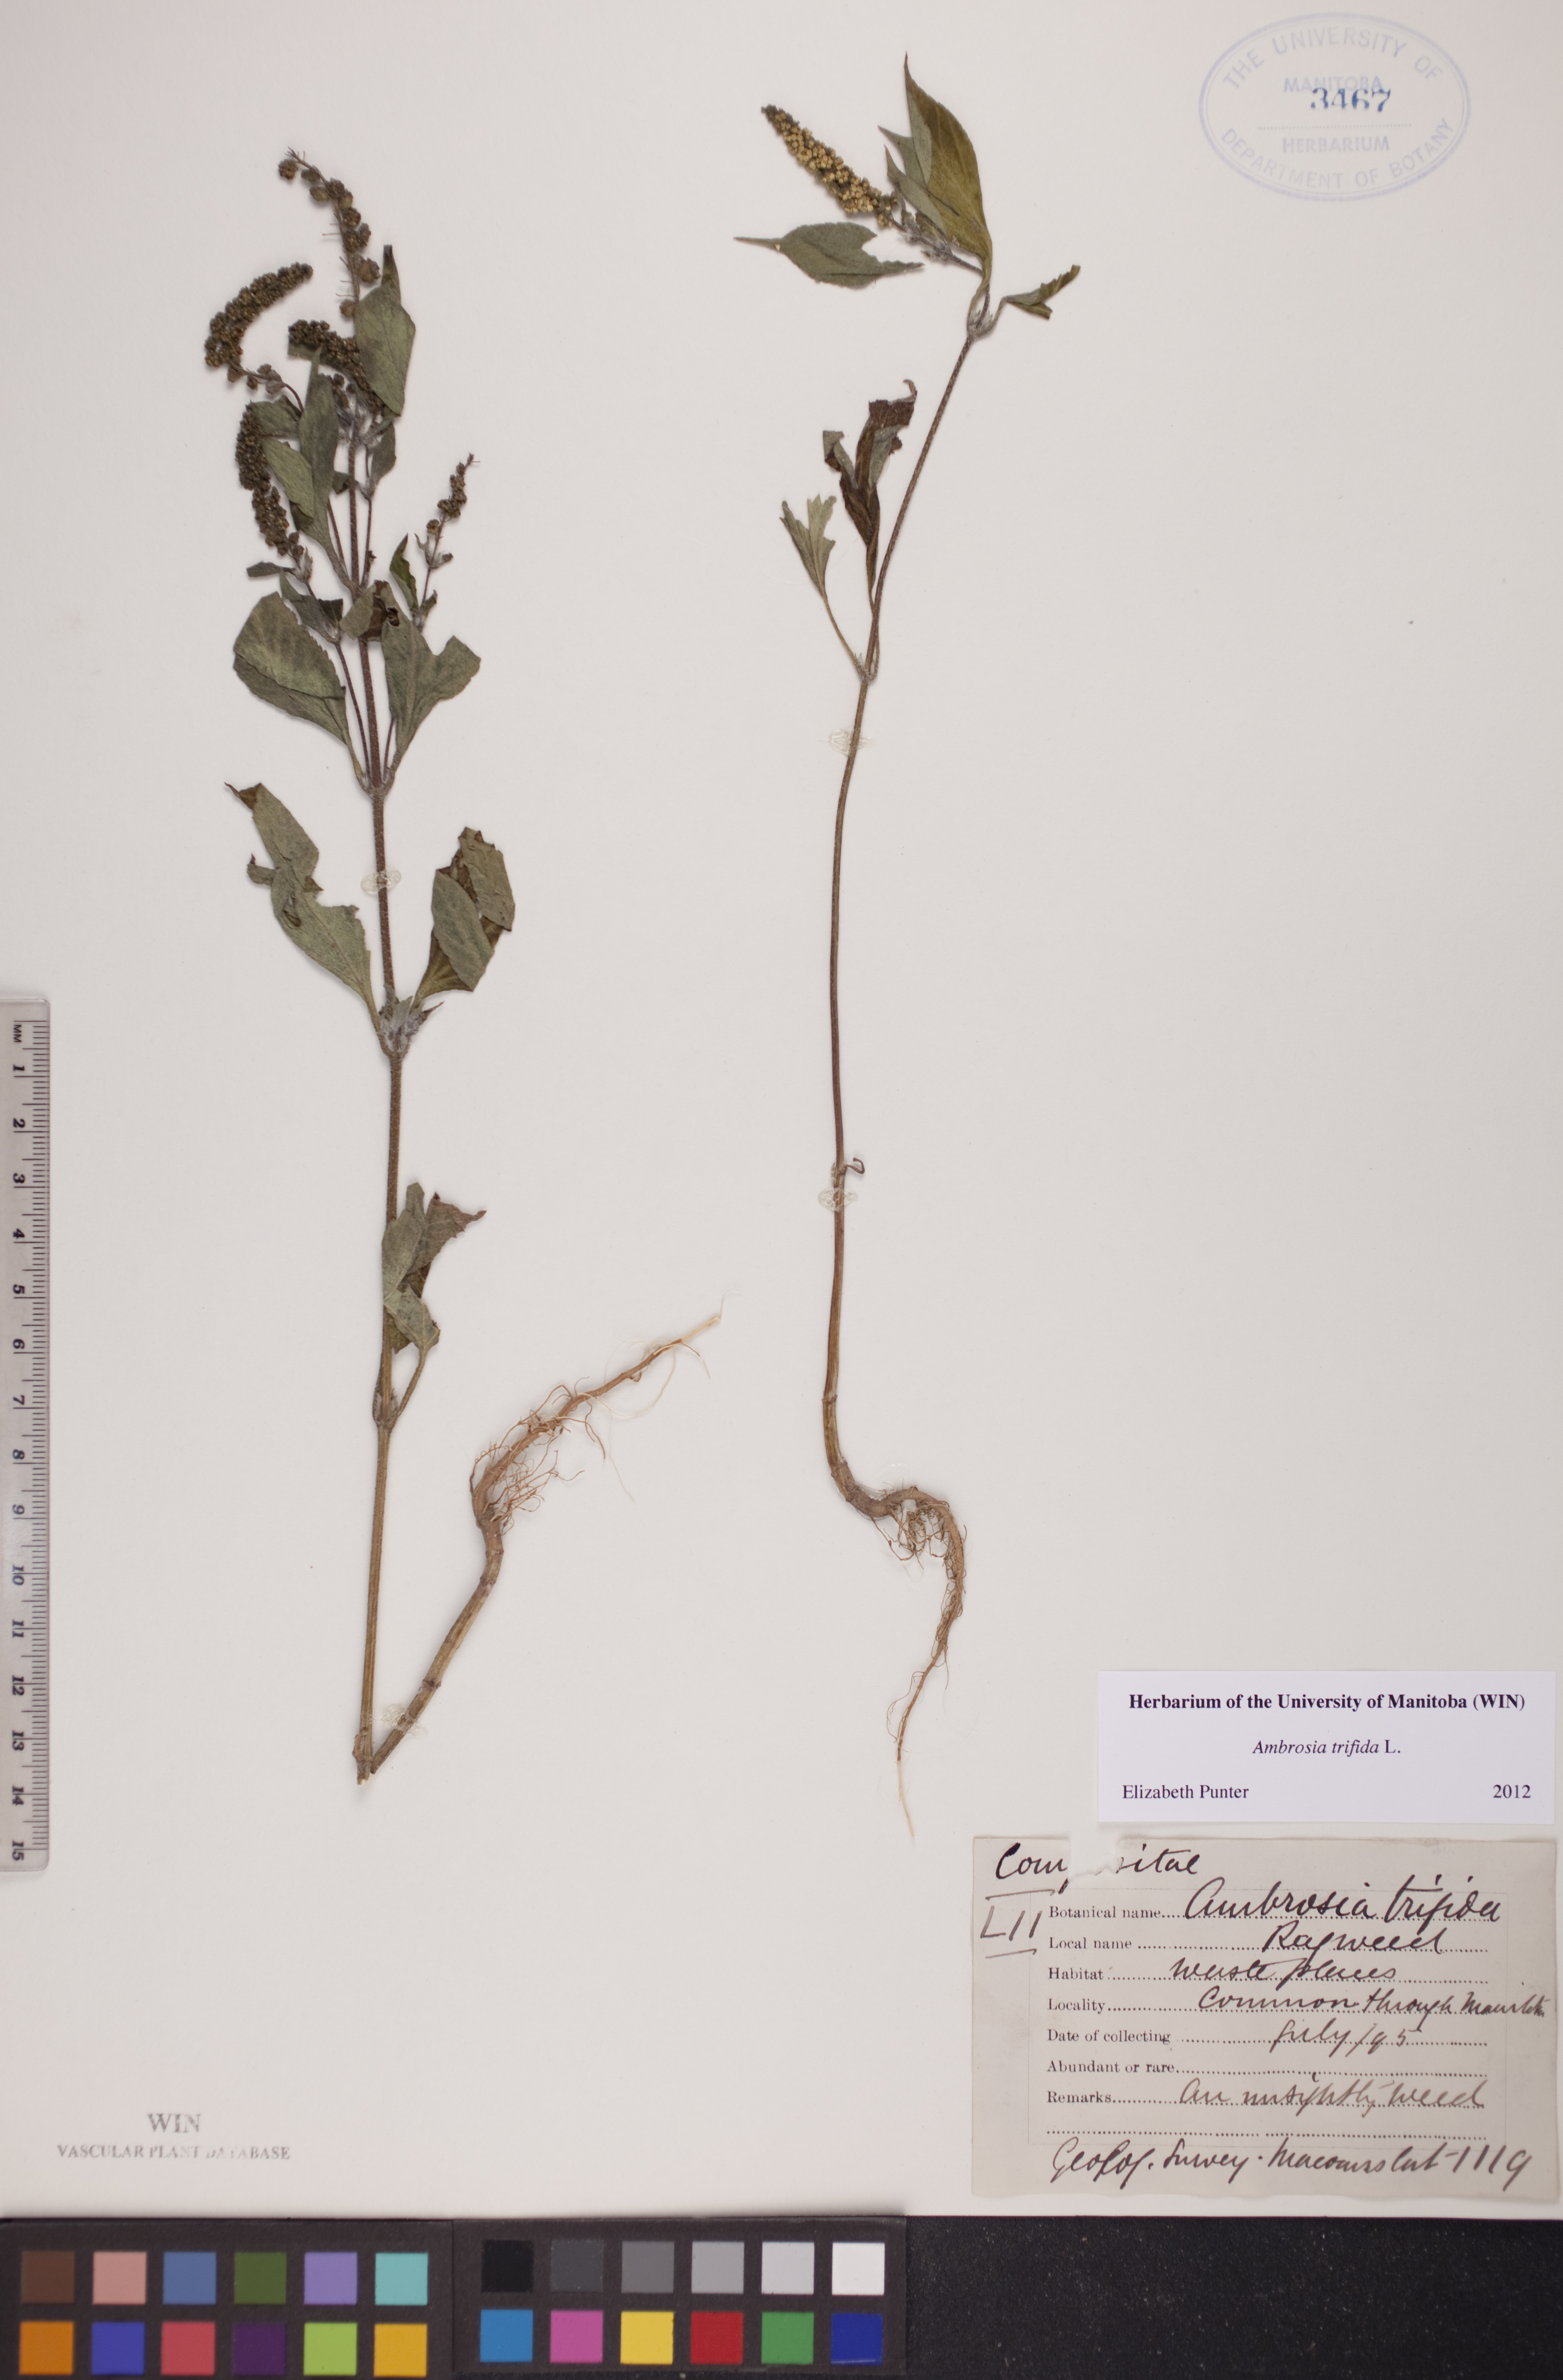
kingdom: Plantae
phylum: Tracheophyta
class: Magnoliopsida
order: Asterales
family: Asteraceae
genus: Ambrosia
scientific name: Ambrosia trifida
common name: Giant ragweed
